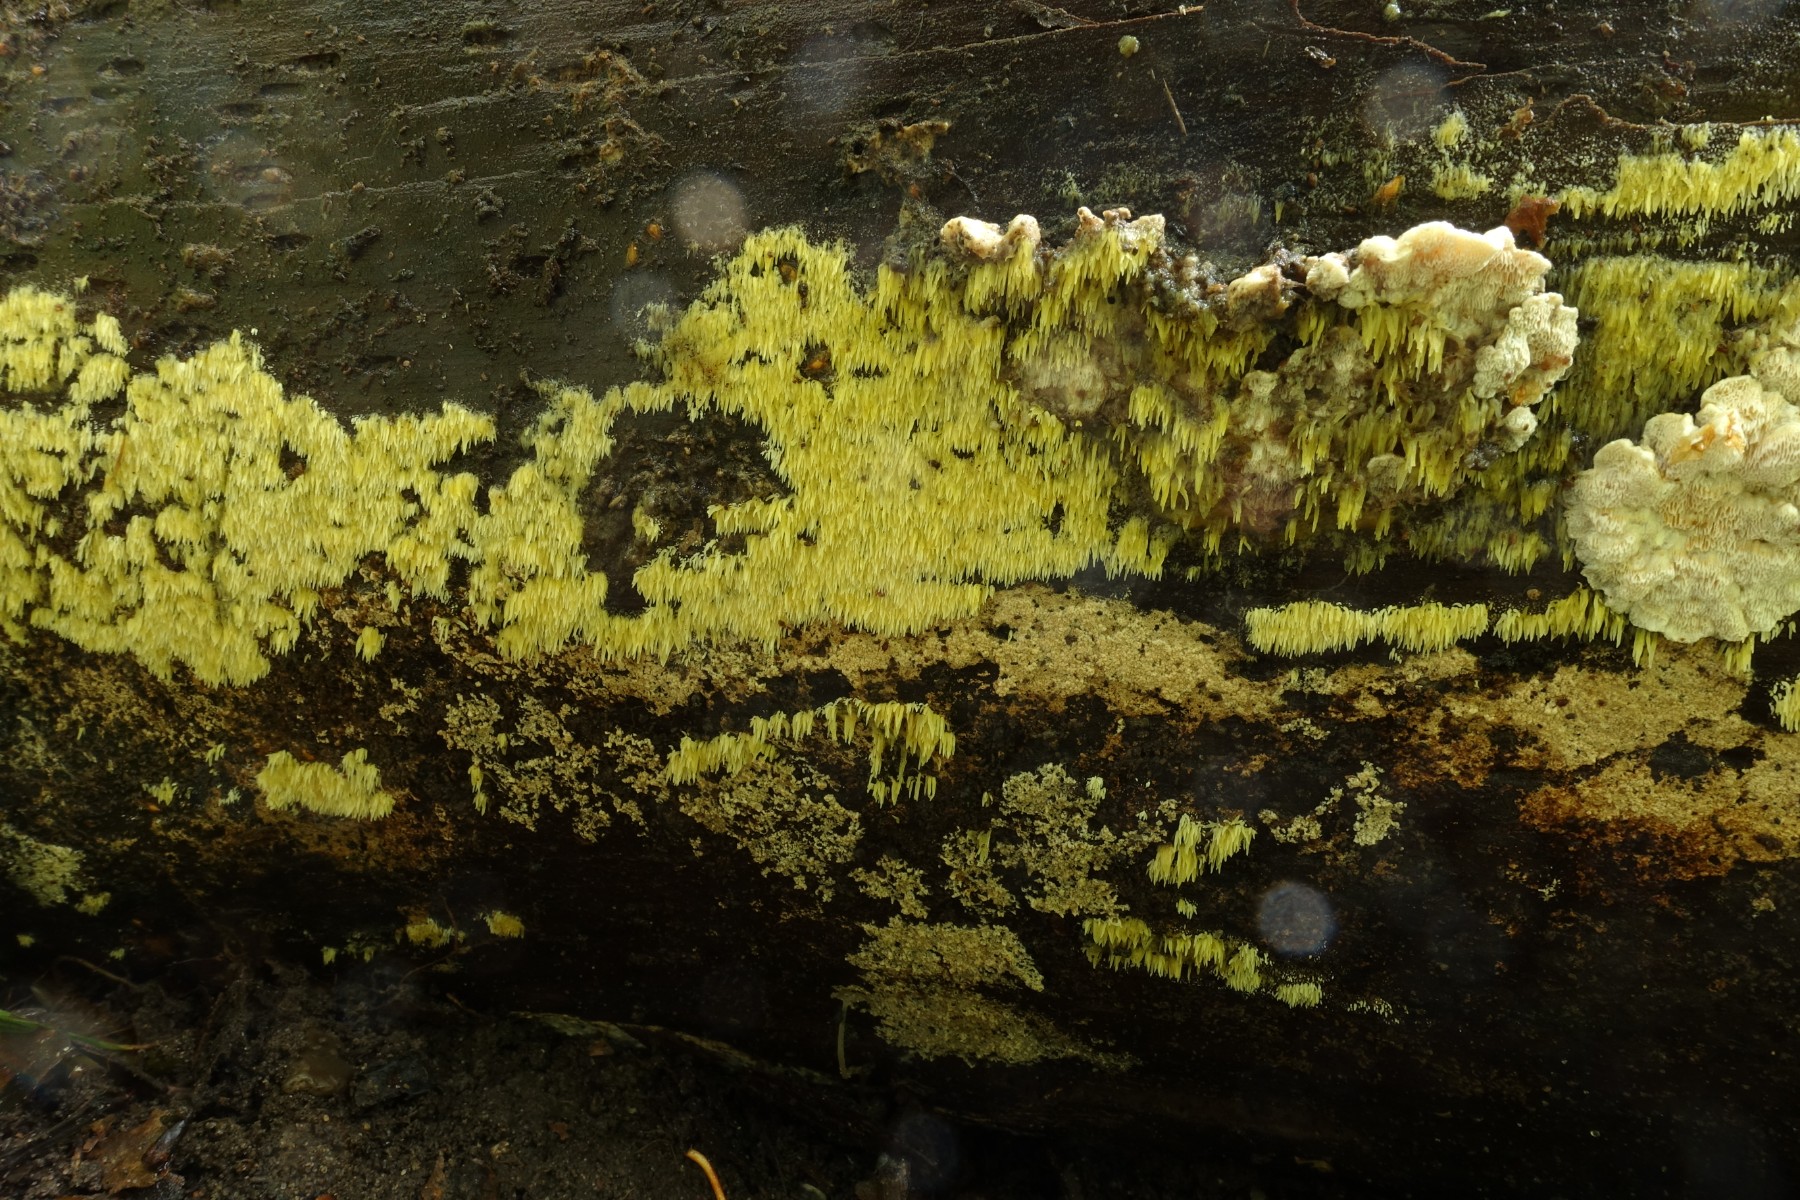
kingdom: Fungi
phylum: Basidiomycota
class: Agaricomycetes
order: Polyporales
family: Meruliaceae
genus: Mycoacia
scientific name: Mycoacia uda
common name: citrongul vokspig
